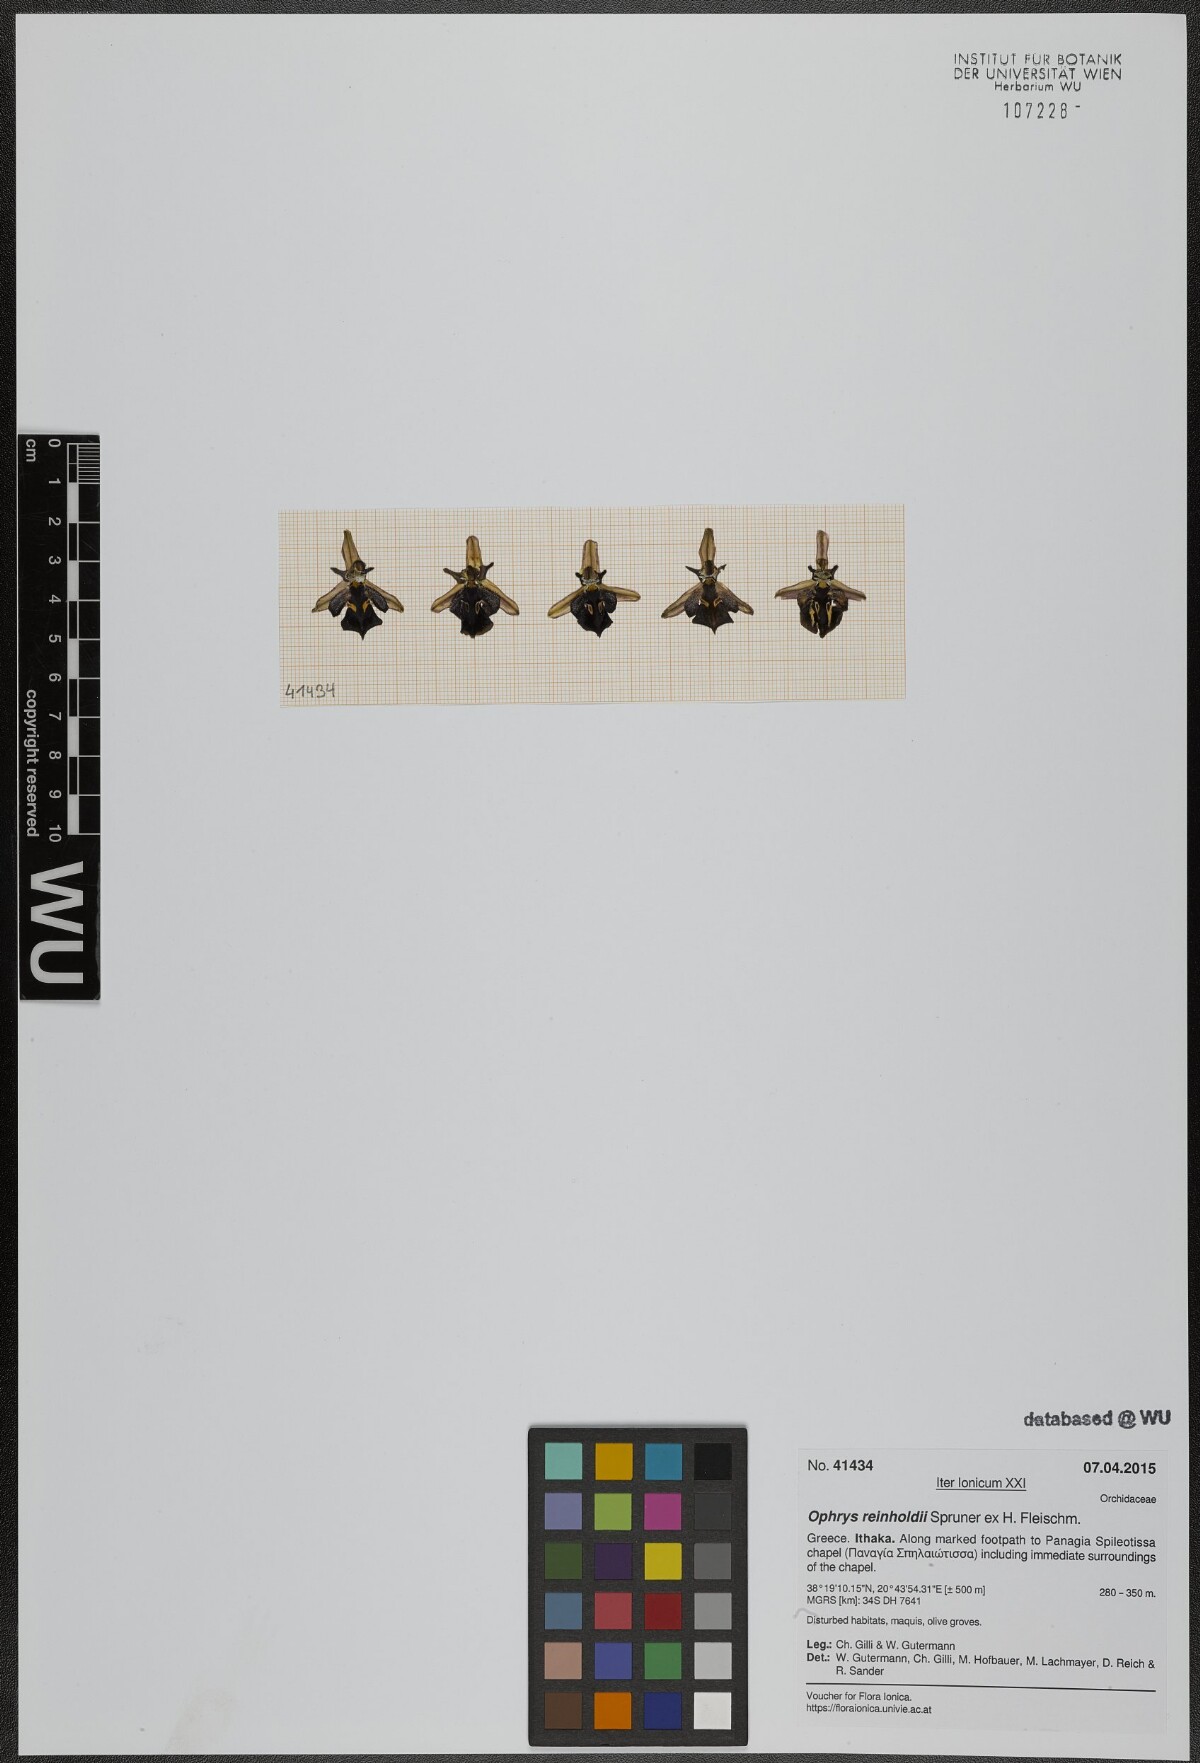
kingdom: Plantae
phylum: Tracheophyta
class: Liliopsida
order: Asparagales
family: Orchidaceae
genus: Ophrys
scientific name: Ophrys reinholdii
